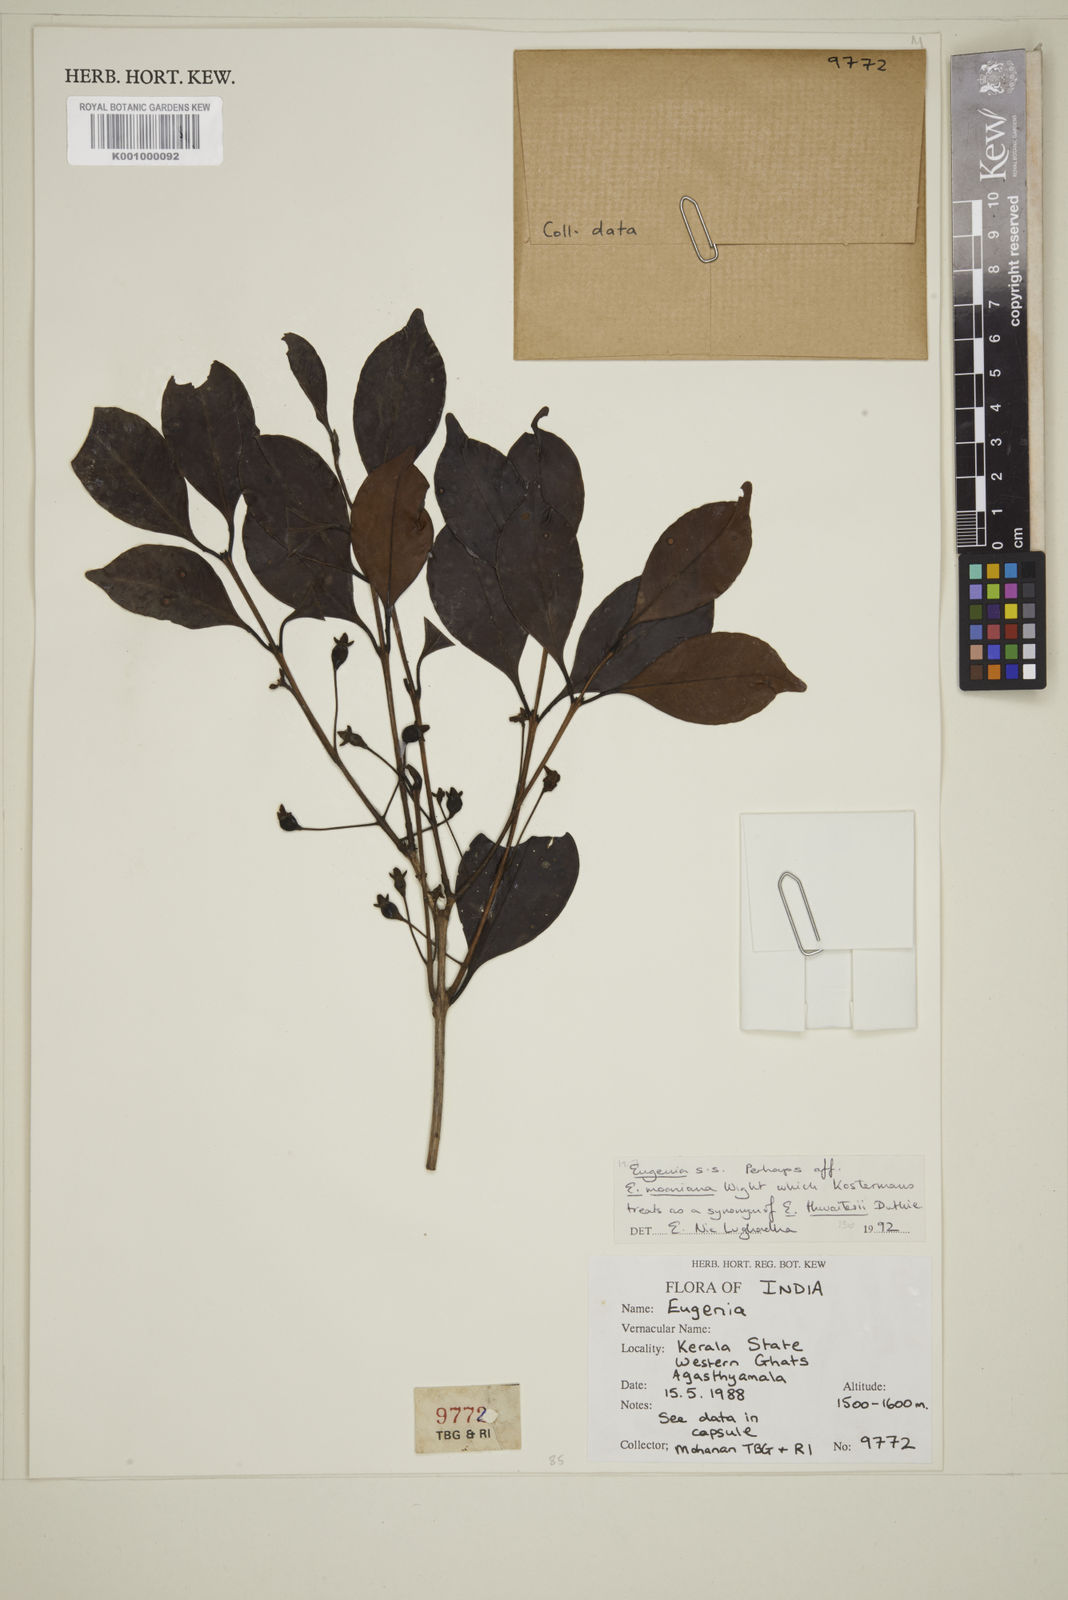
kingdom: Plantae
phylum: Tracheophyta
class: Magnoliopsida
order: Myrtales
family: Myrtaceae
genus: Eugenia
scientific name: Eugenia thwaitesii
